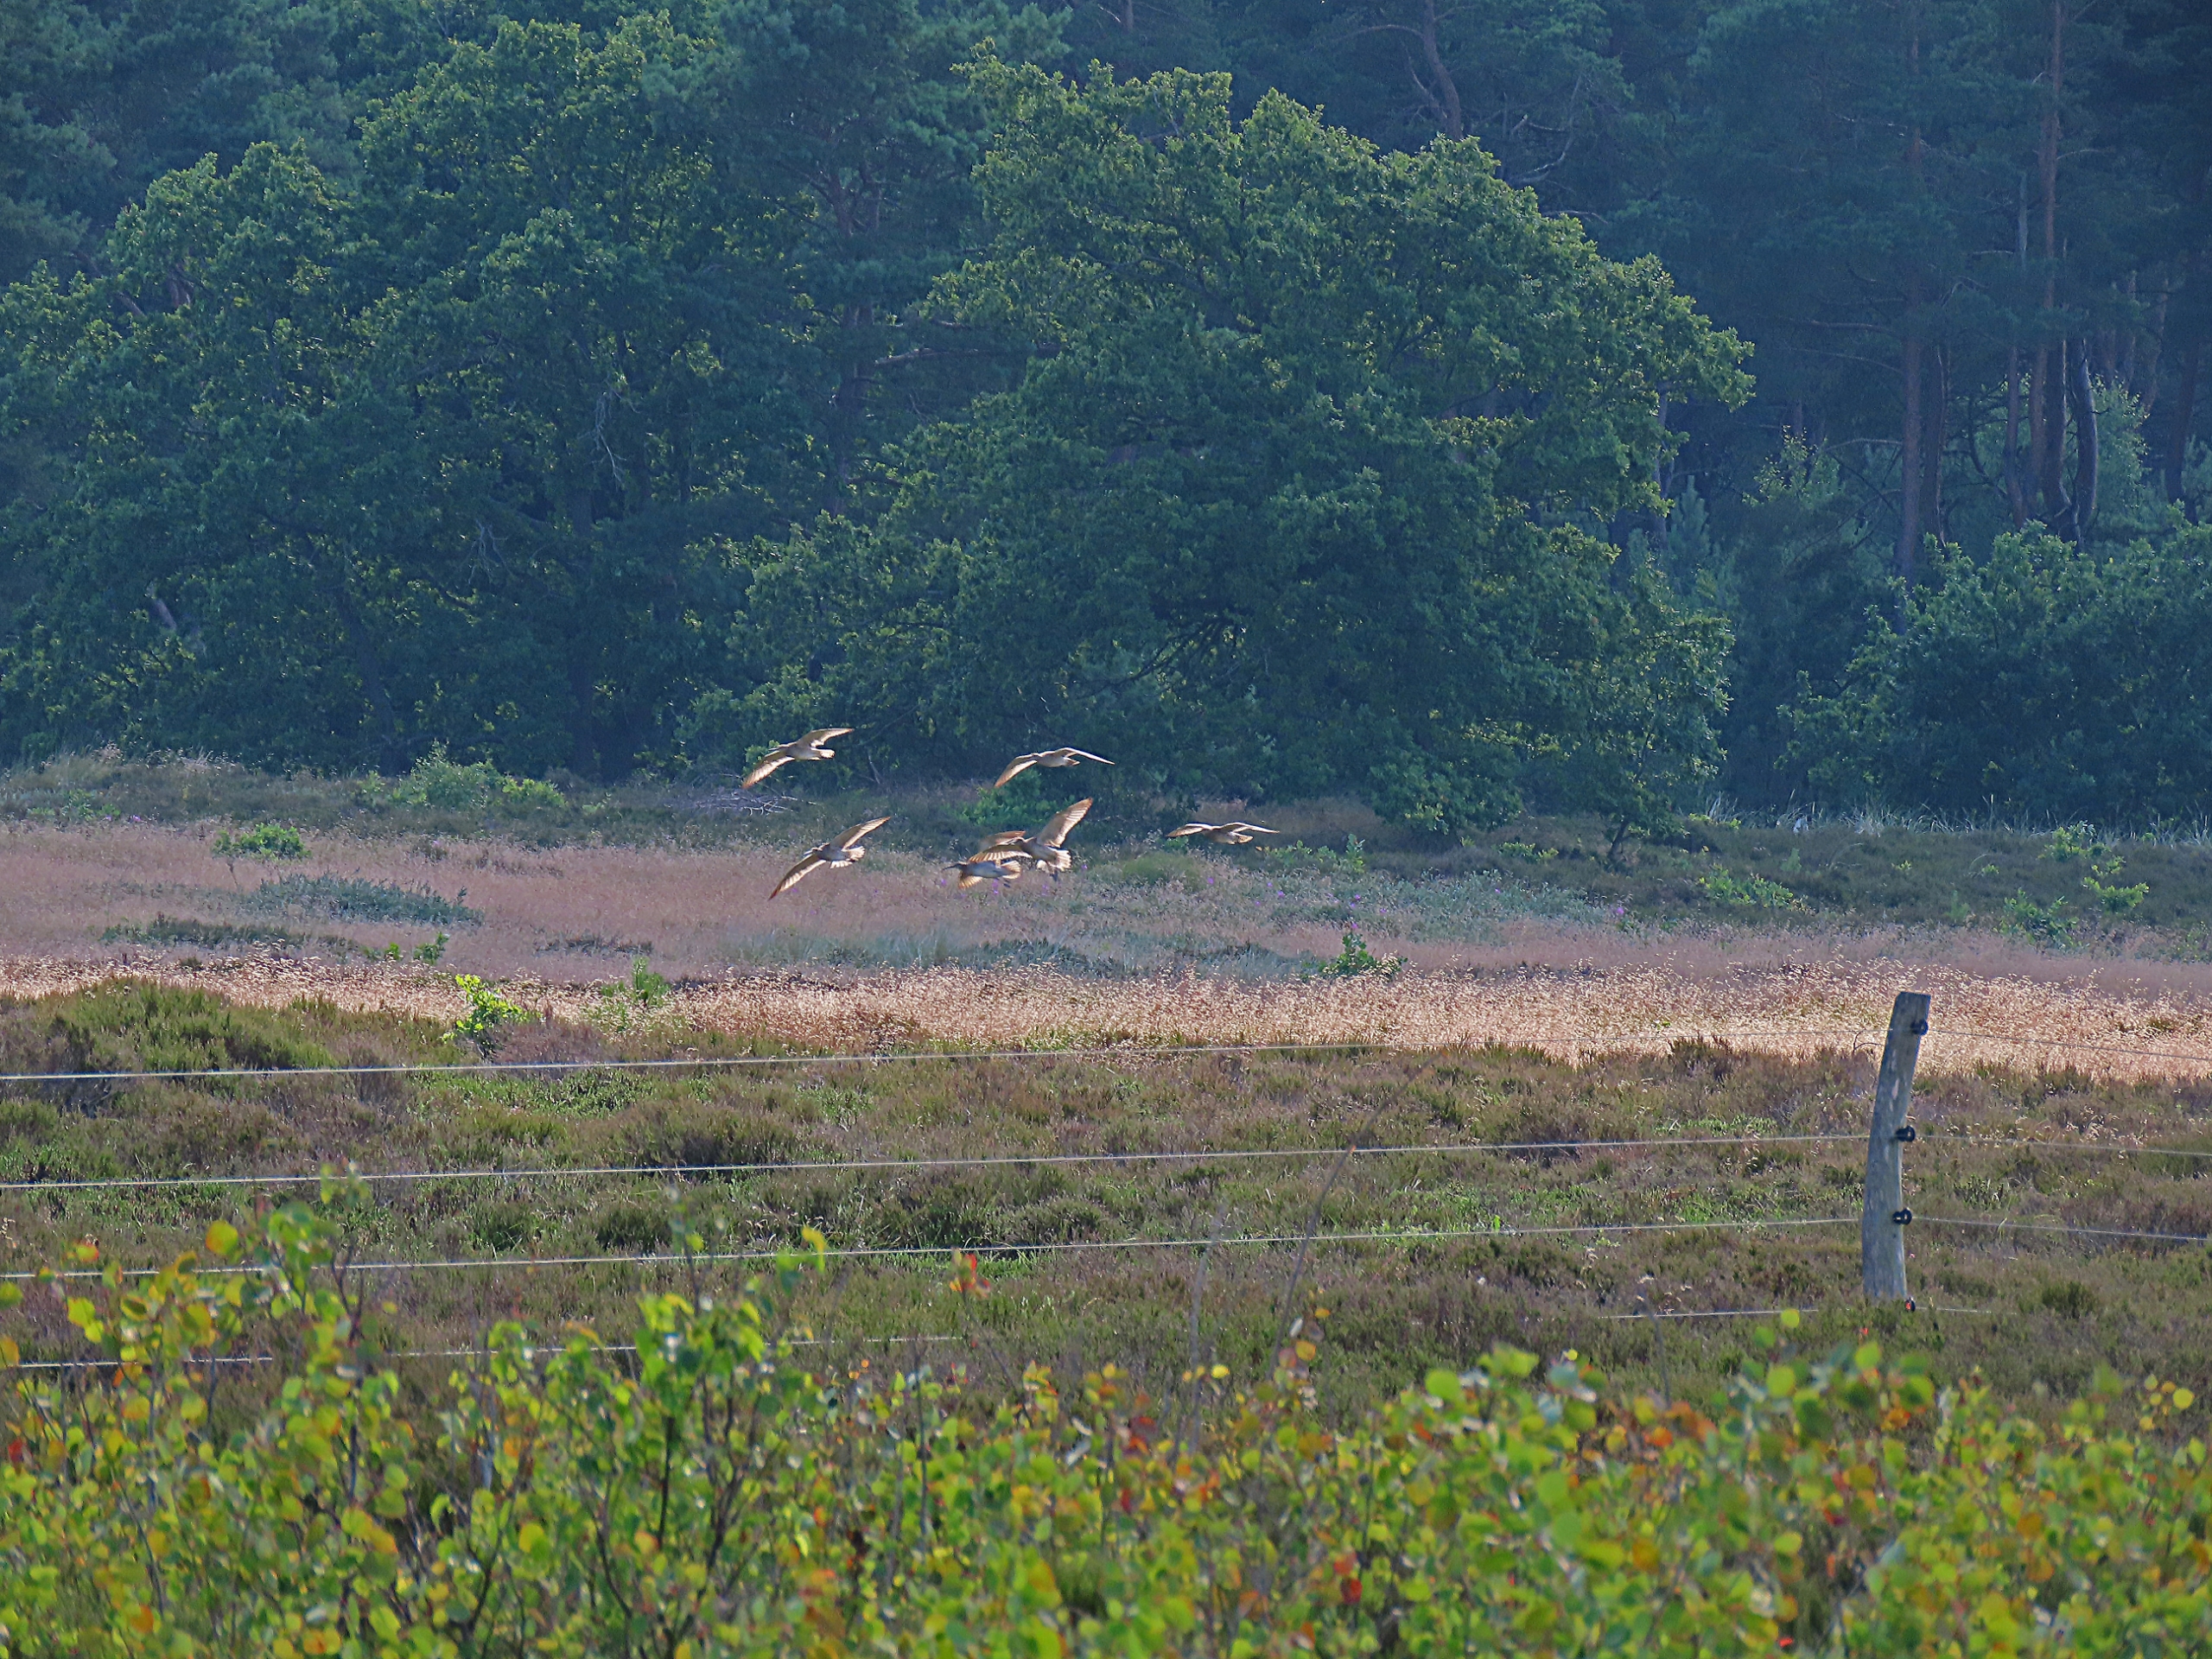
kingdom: Animalia
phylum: Chordata
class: Aves
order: Charadriiformes
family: Scolopacidae
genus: Numenius
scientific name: Numenius phaeopus
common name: Småspove
